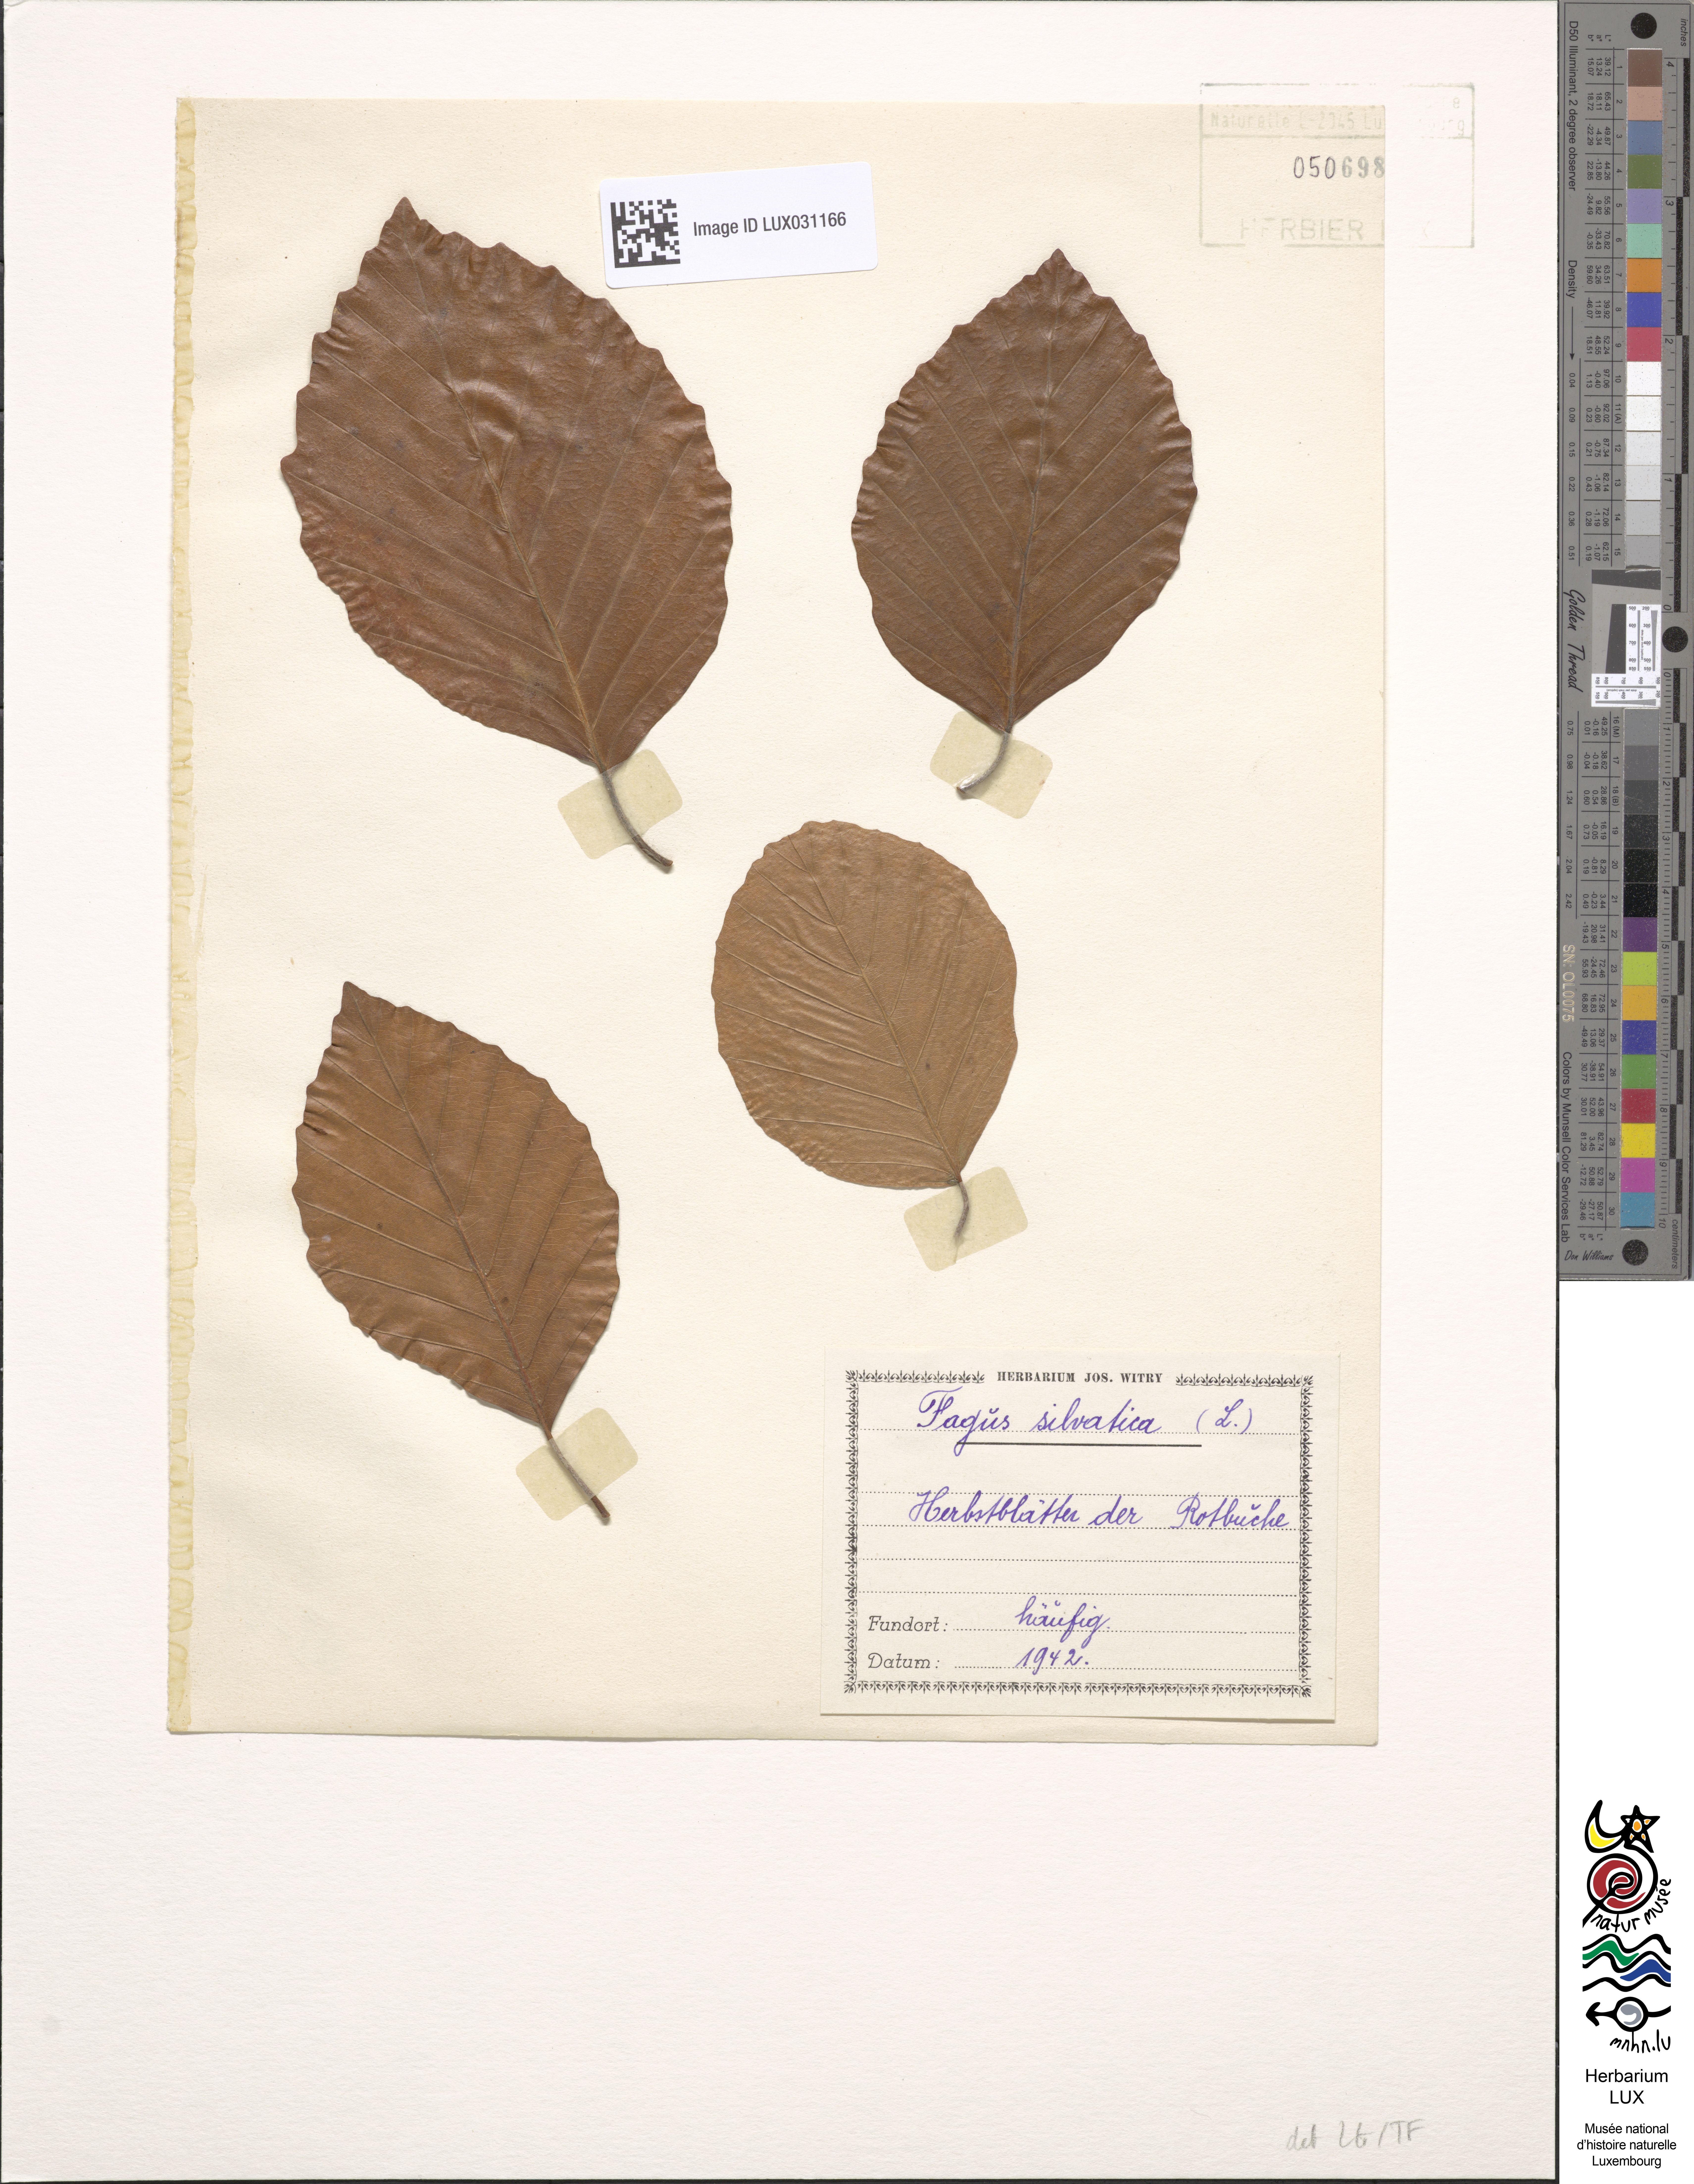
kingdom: Plantae
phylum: Tracheophyta
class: Magnoliopsida
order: Fagales
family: Fagaceae
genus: Fagus
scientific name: Fagus sylvatica
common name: Beech
